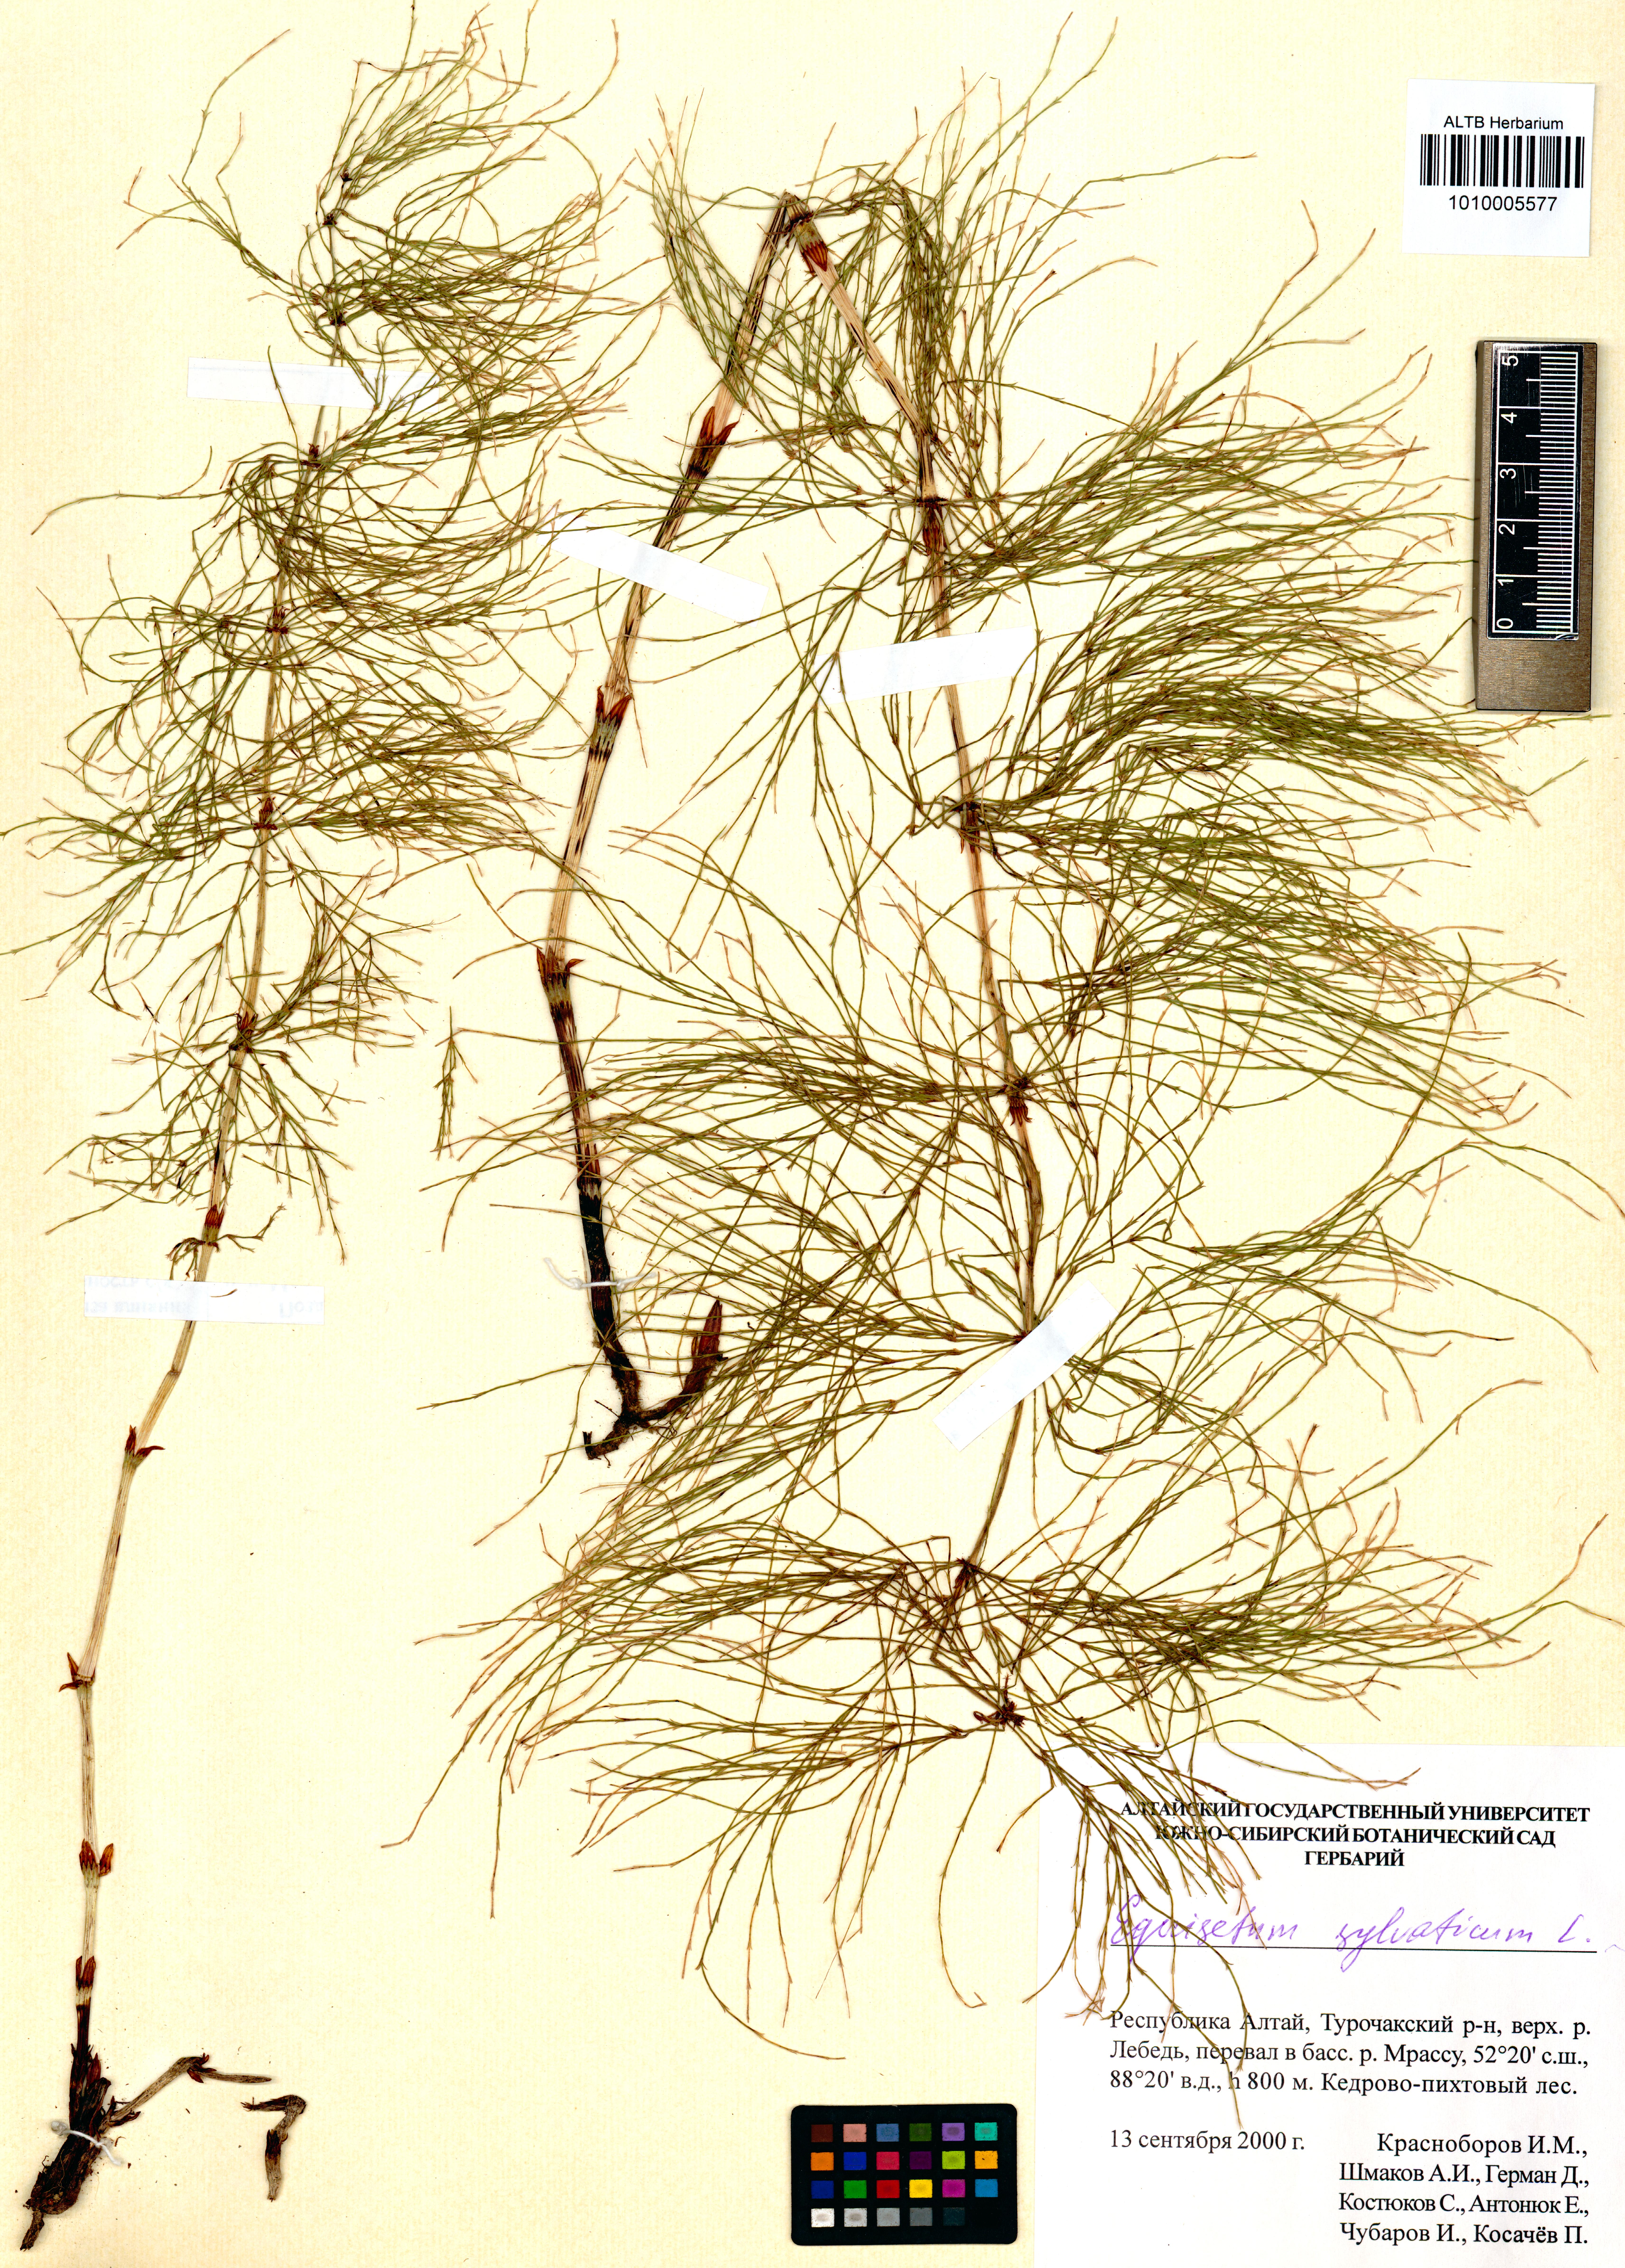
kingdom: Plantae
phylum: Tracheophyta
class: Polypodiopsida
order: Equisetales
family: Equisetaceae
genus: Equisetum
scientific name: Equisetum sylvaticum
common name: Wood horsetail
